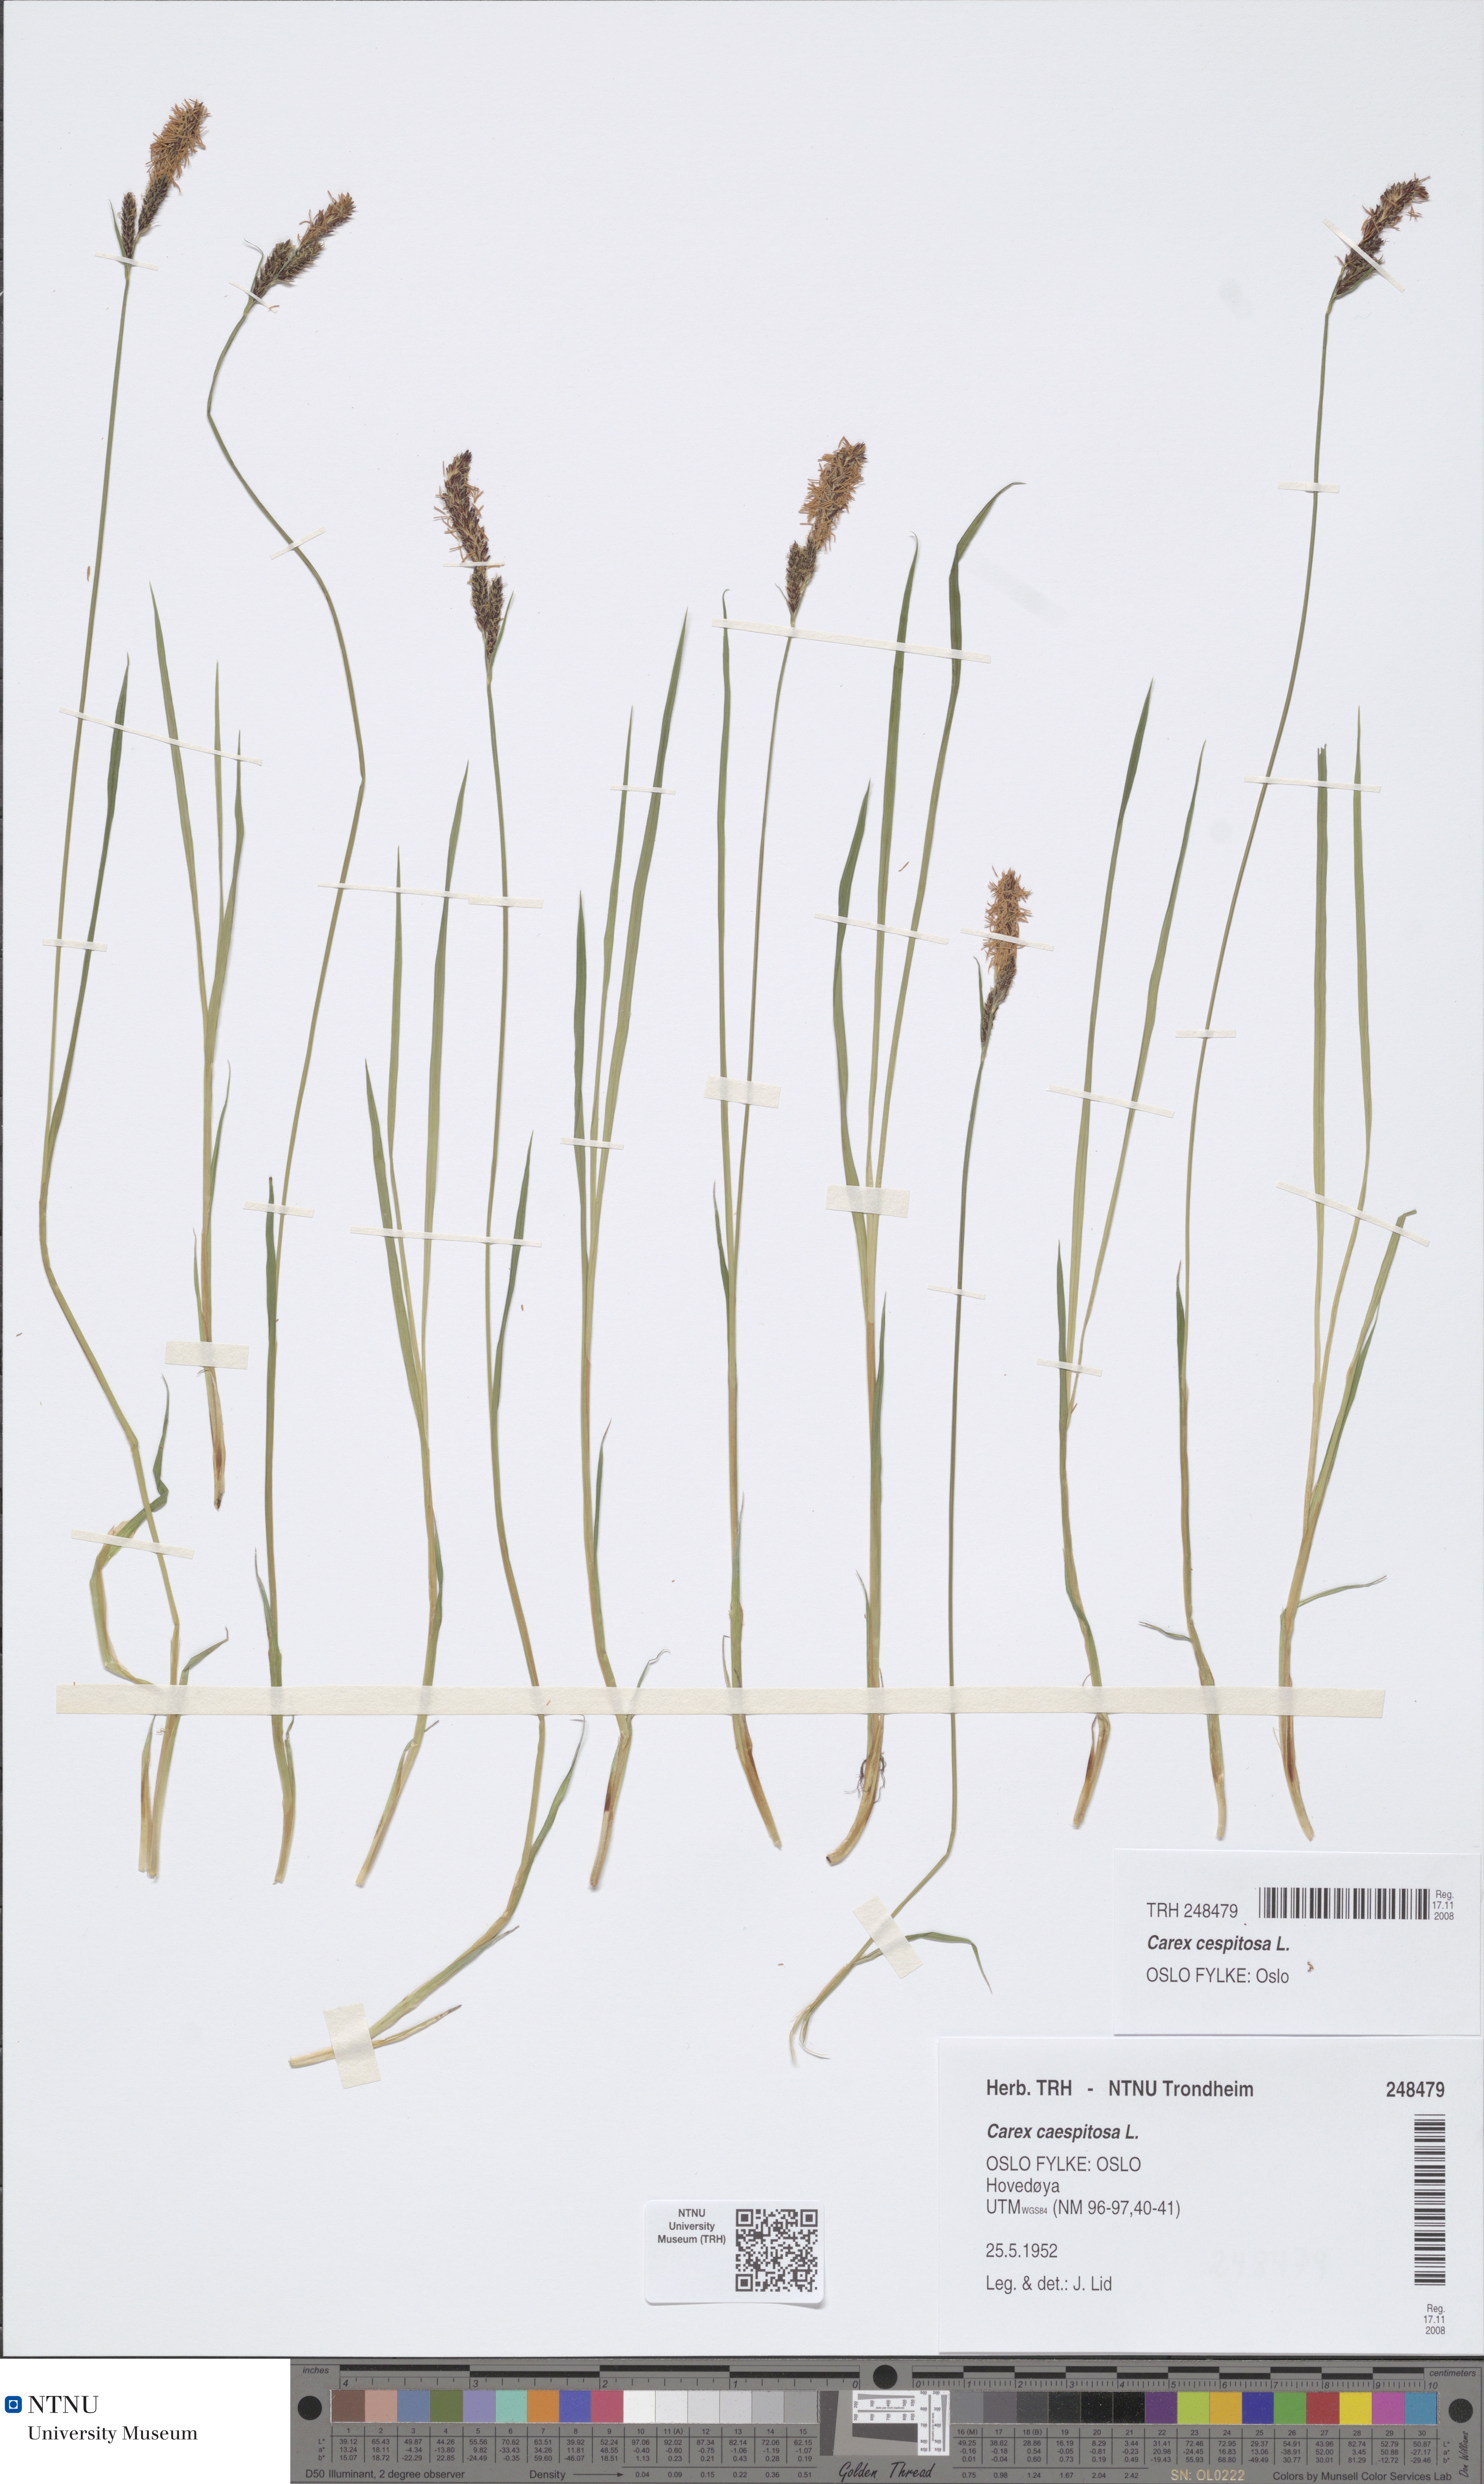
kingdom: Plantae
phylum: Tracheophyta
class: Liliopsida
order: Poales
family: Cyperaceae
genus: Carex
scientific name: Carex cespitosa
